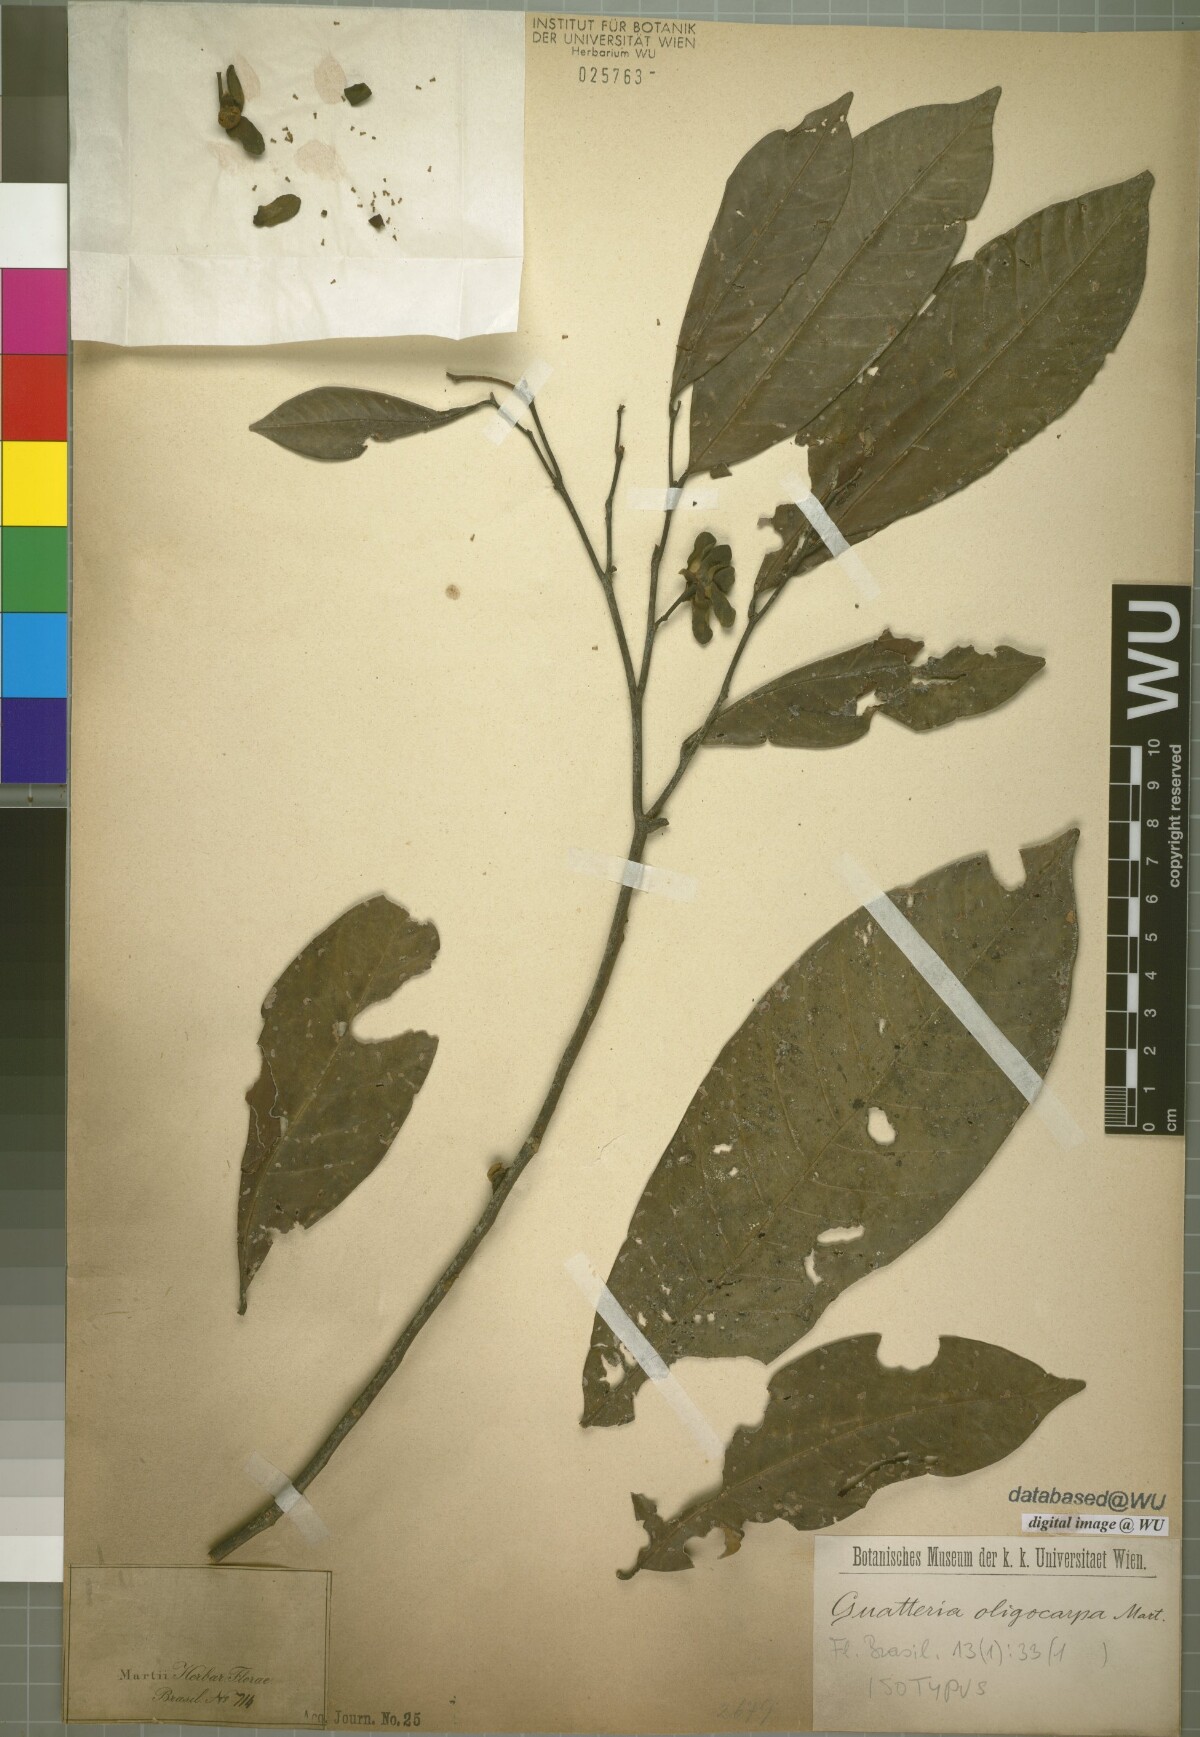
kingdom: Plantae
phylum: Tracheophyta
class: Magnoliopsida
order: Magnoliales
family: Annonaceae
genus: Guatteria
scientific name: Guatteria oligocarpa
